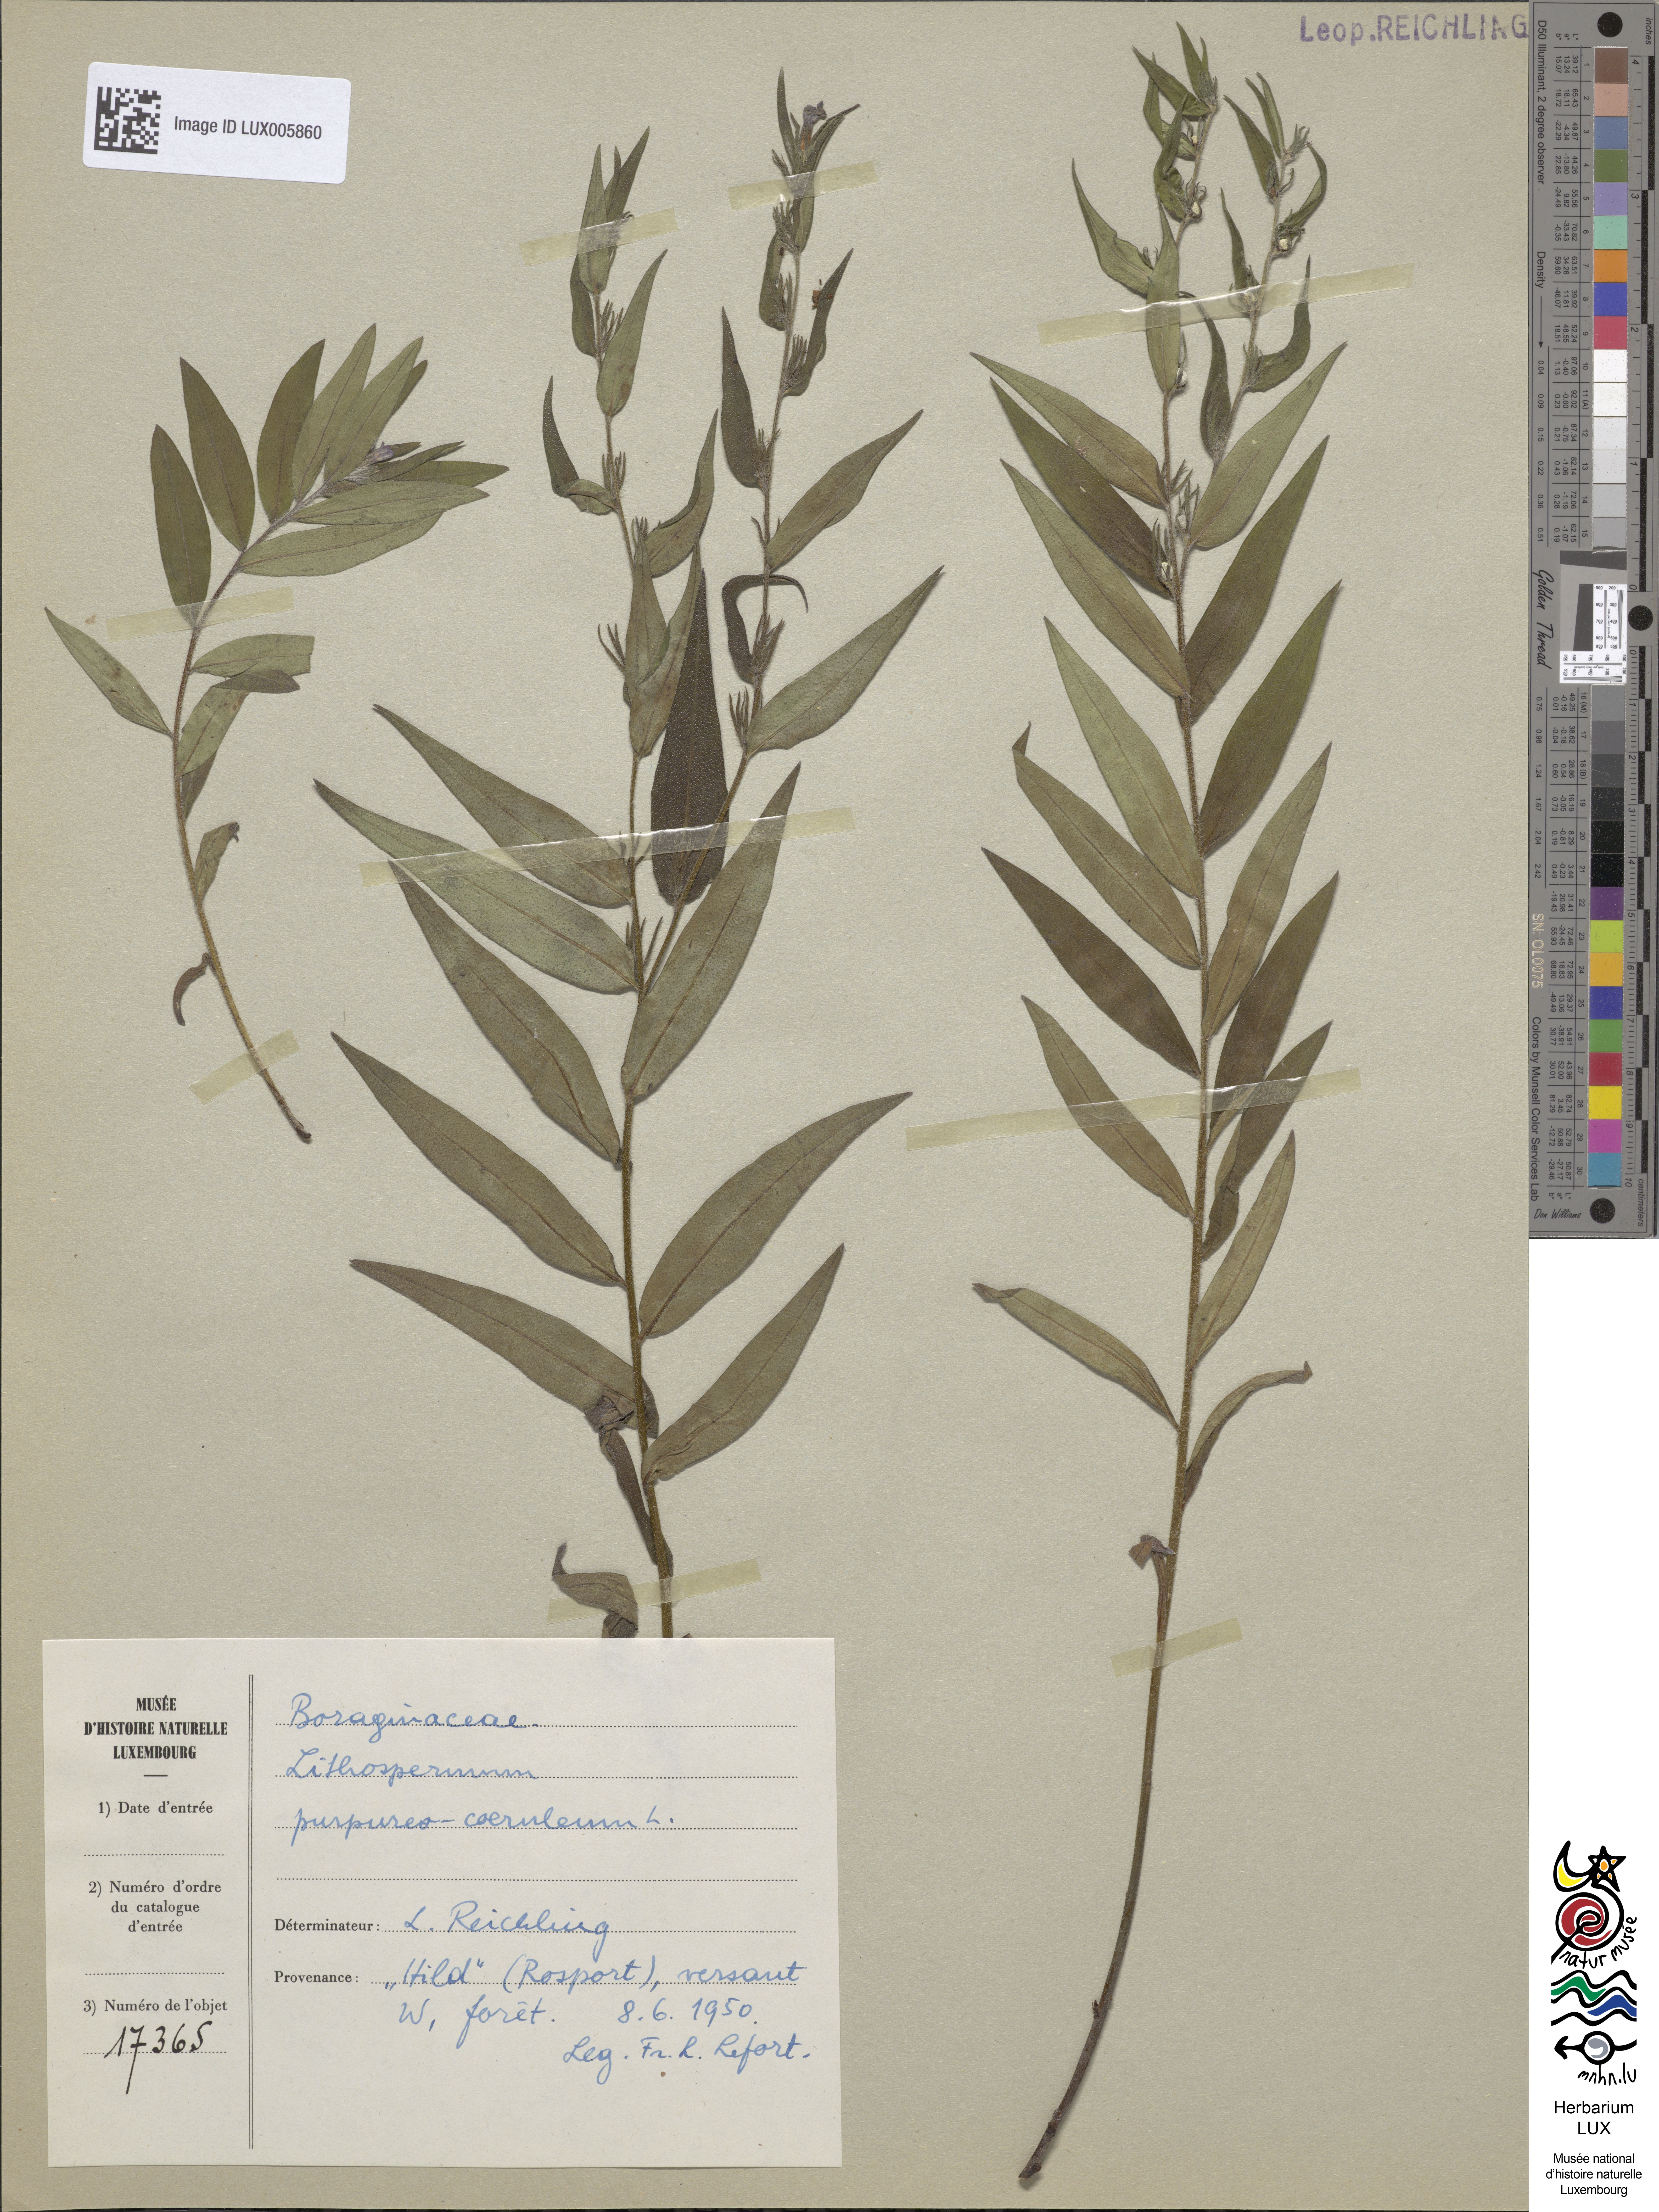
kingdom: Plantae
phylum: Tracheophyta
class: Magnoliopsida
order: Boraginales
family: Boraginaceae
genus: Aegonychon
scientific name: Aegonychon purpurocaeruleum
